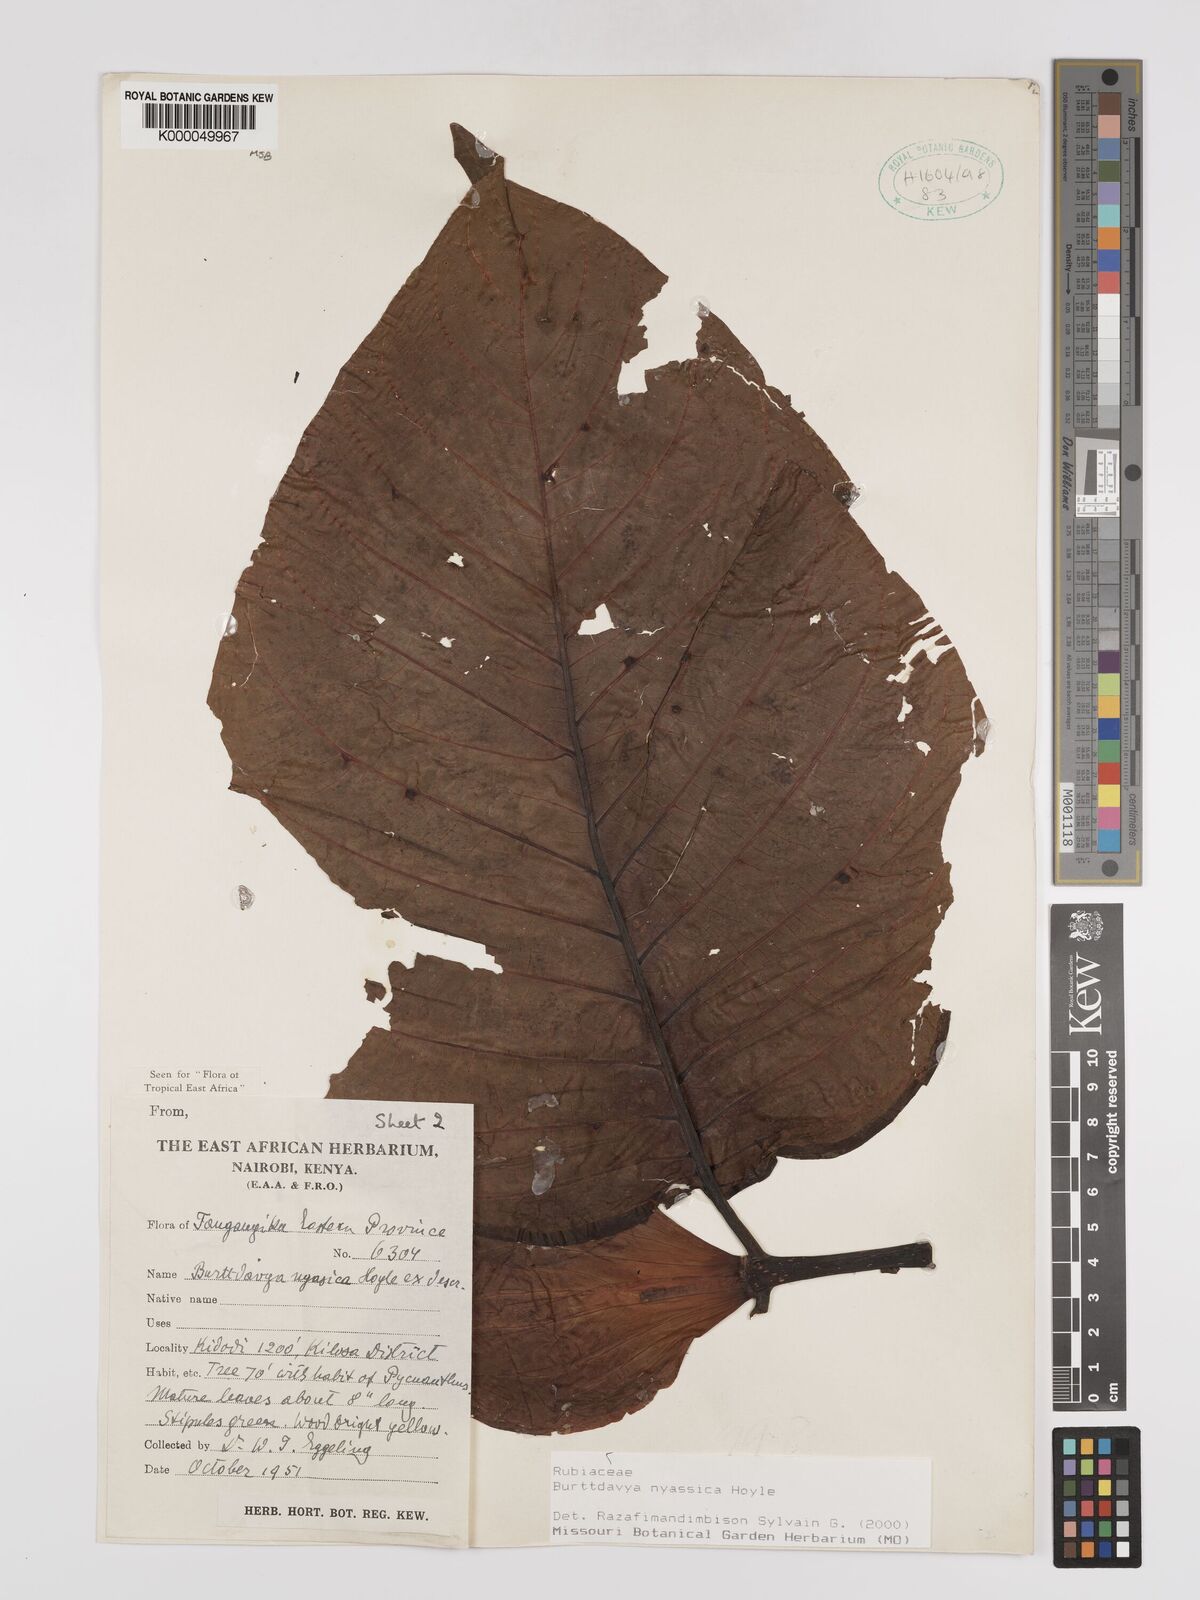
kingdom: Plantae
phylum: Tracheophyta
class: Magnoliopsida
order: Gentianales
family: Rubiaceae
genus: Nauclea
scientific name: Nauclea
